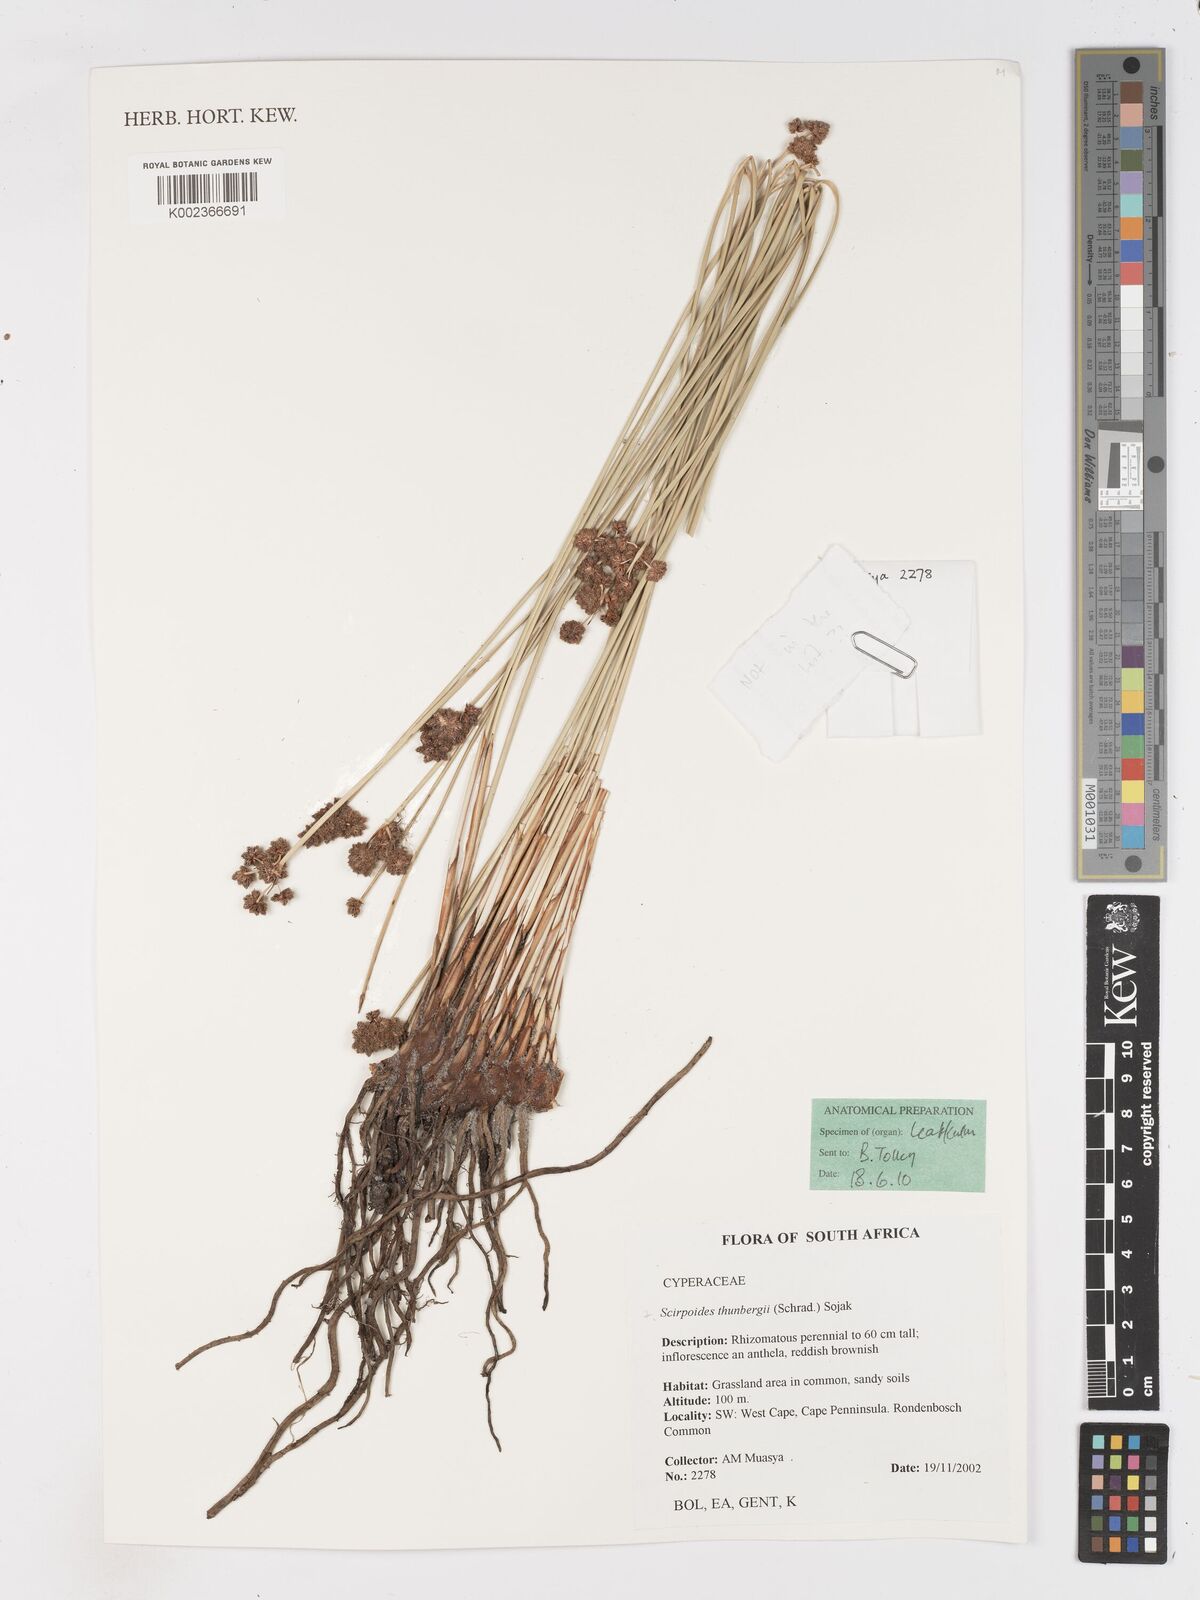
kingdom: Plantae
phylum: Tracheophyta
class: Liliopsida
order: Poales
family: Cyperaceae
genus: Scirpoides
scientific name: Scirpoides holoschoenus
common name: Round-headed club-rush
